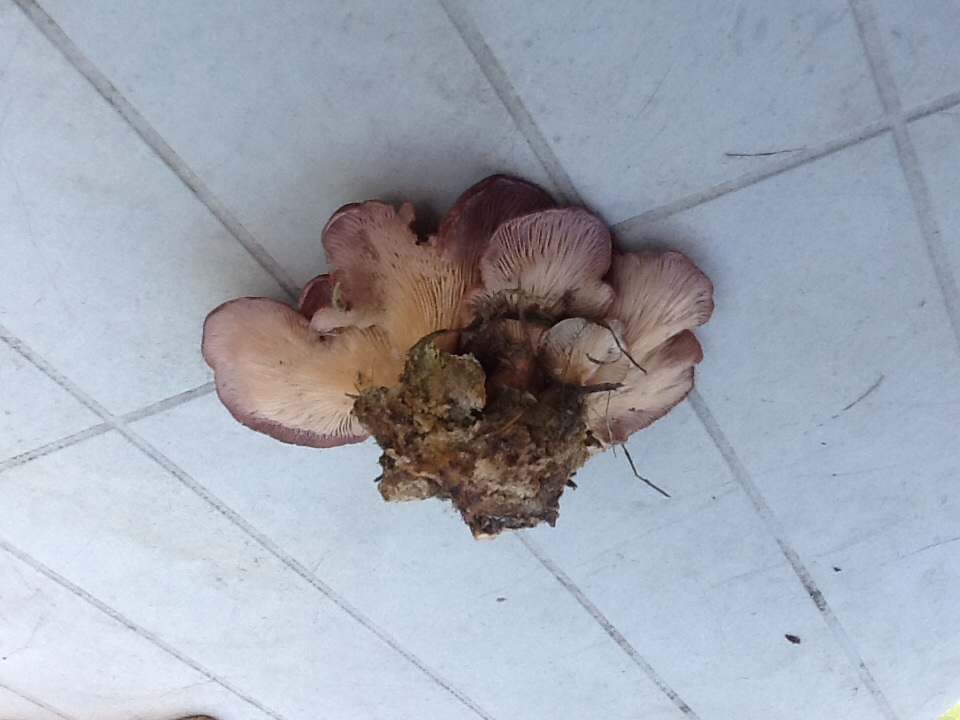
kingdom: Fungi
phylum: Basidiomycota
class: Agaricomycetes
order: Polyporales
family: Panaceae
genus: Panus
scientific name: Panus conchatus
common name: filtstokket læderhat
